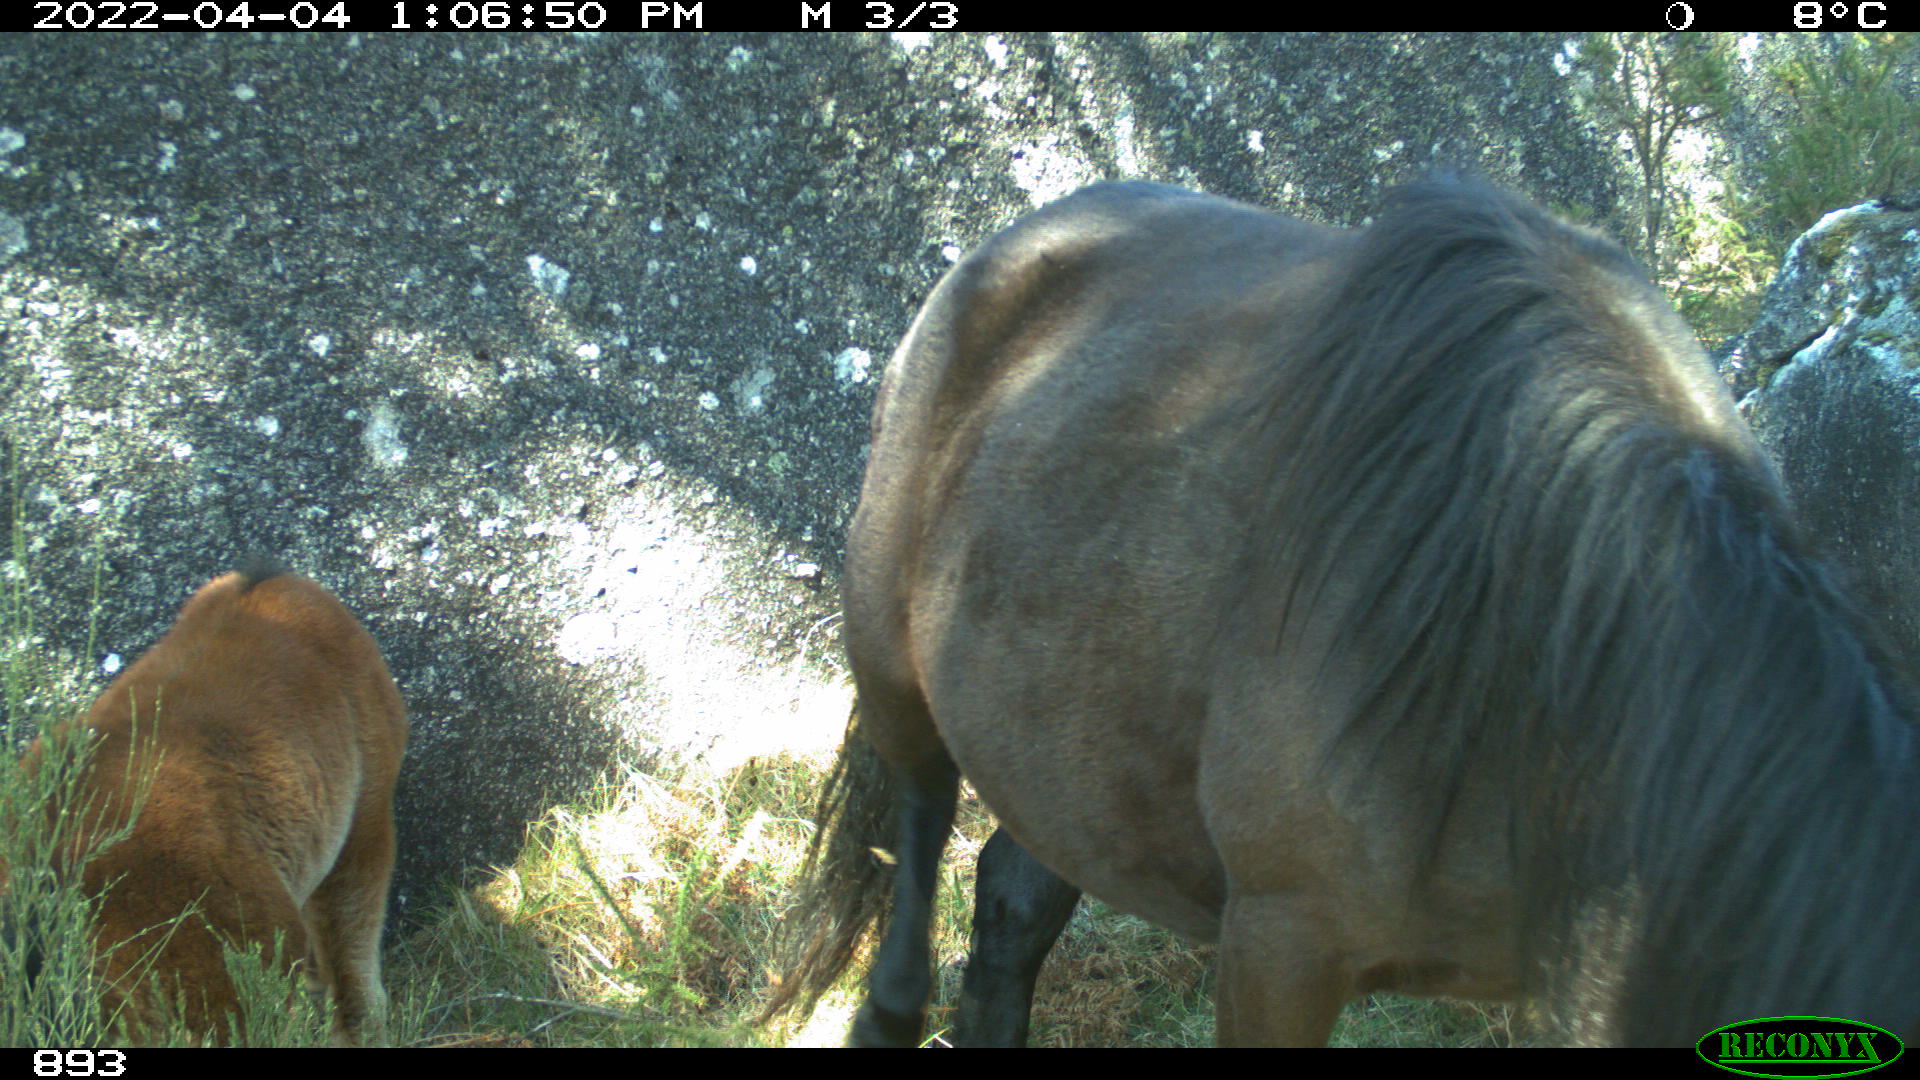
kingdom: Animalia
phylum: Chordata
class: Mammalia
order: Perissodactyla
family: Equidae
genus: Equus
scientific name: Equus caballus
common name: Horse
